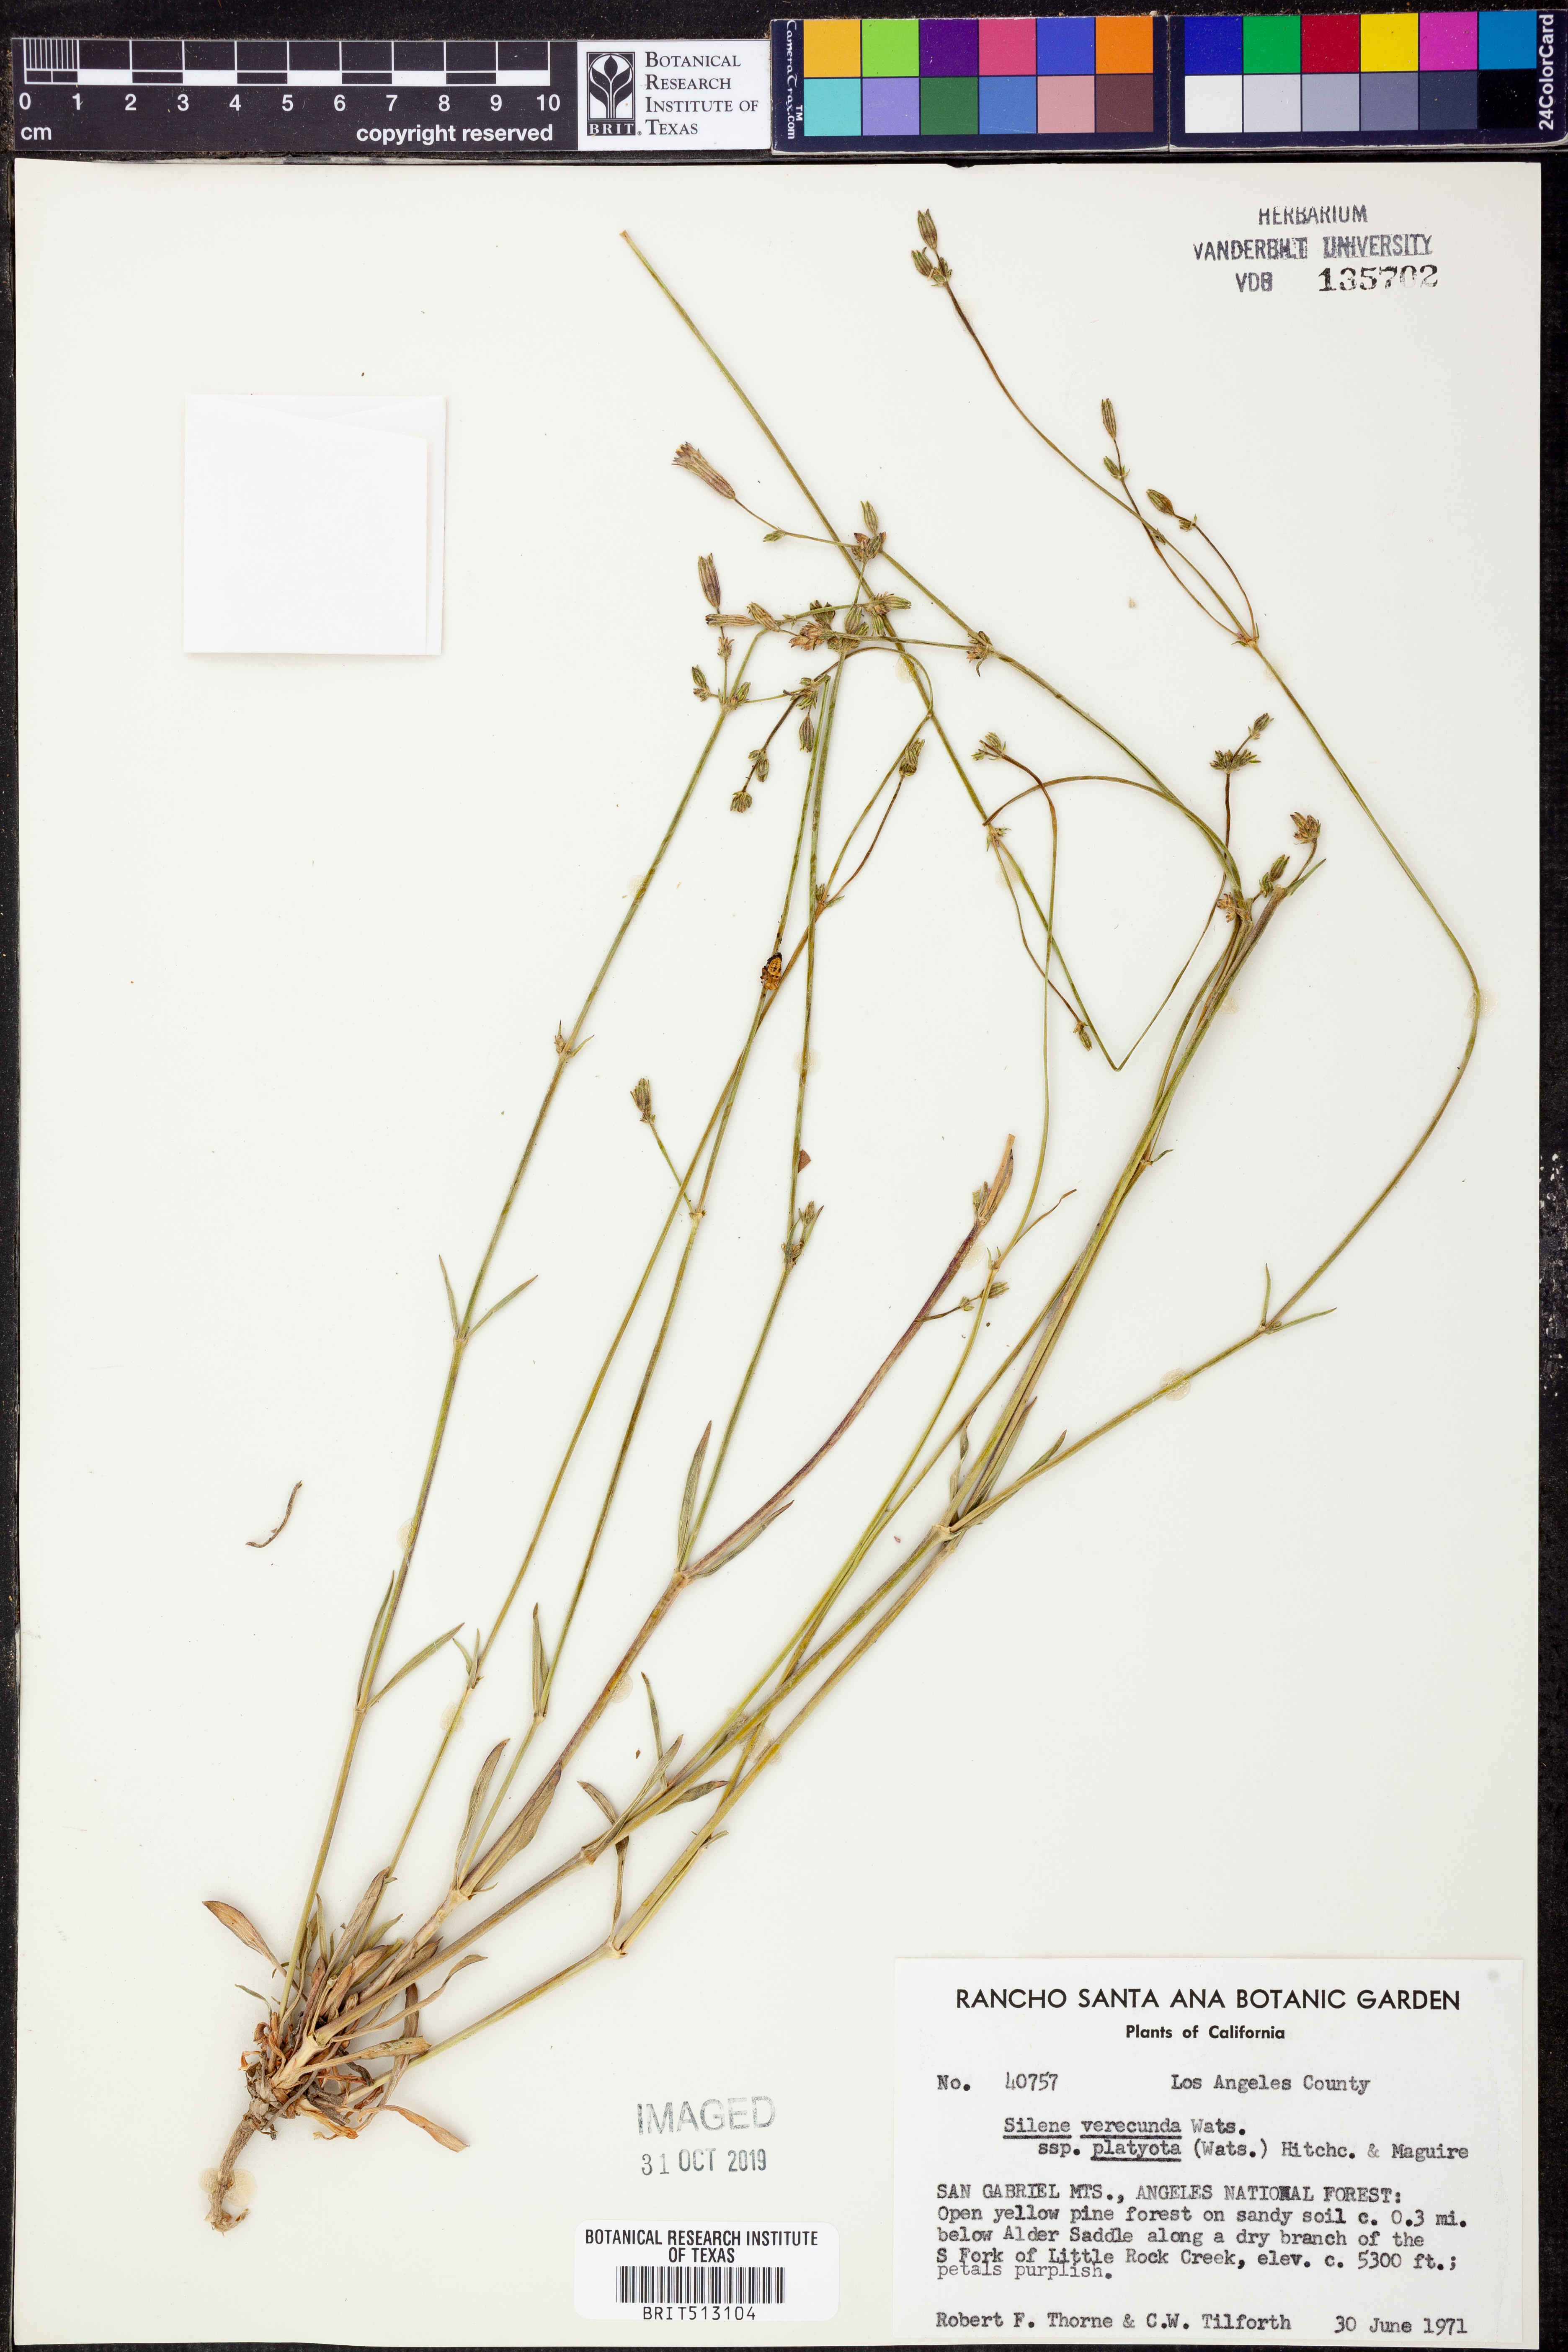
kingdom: Plantae
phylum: Tracheophyta
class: Magnoliopsida
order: Caryophyllales
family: Caryophyllaceae
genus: Silene
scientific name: Silene verecunda
